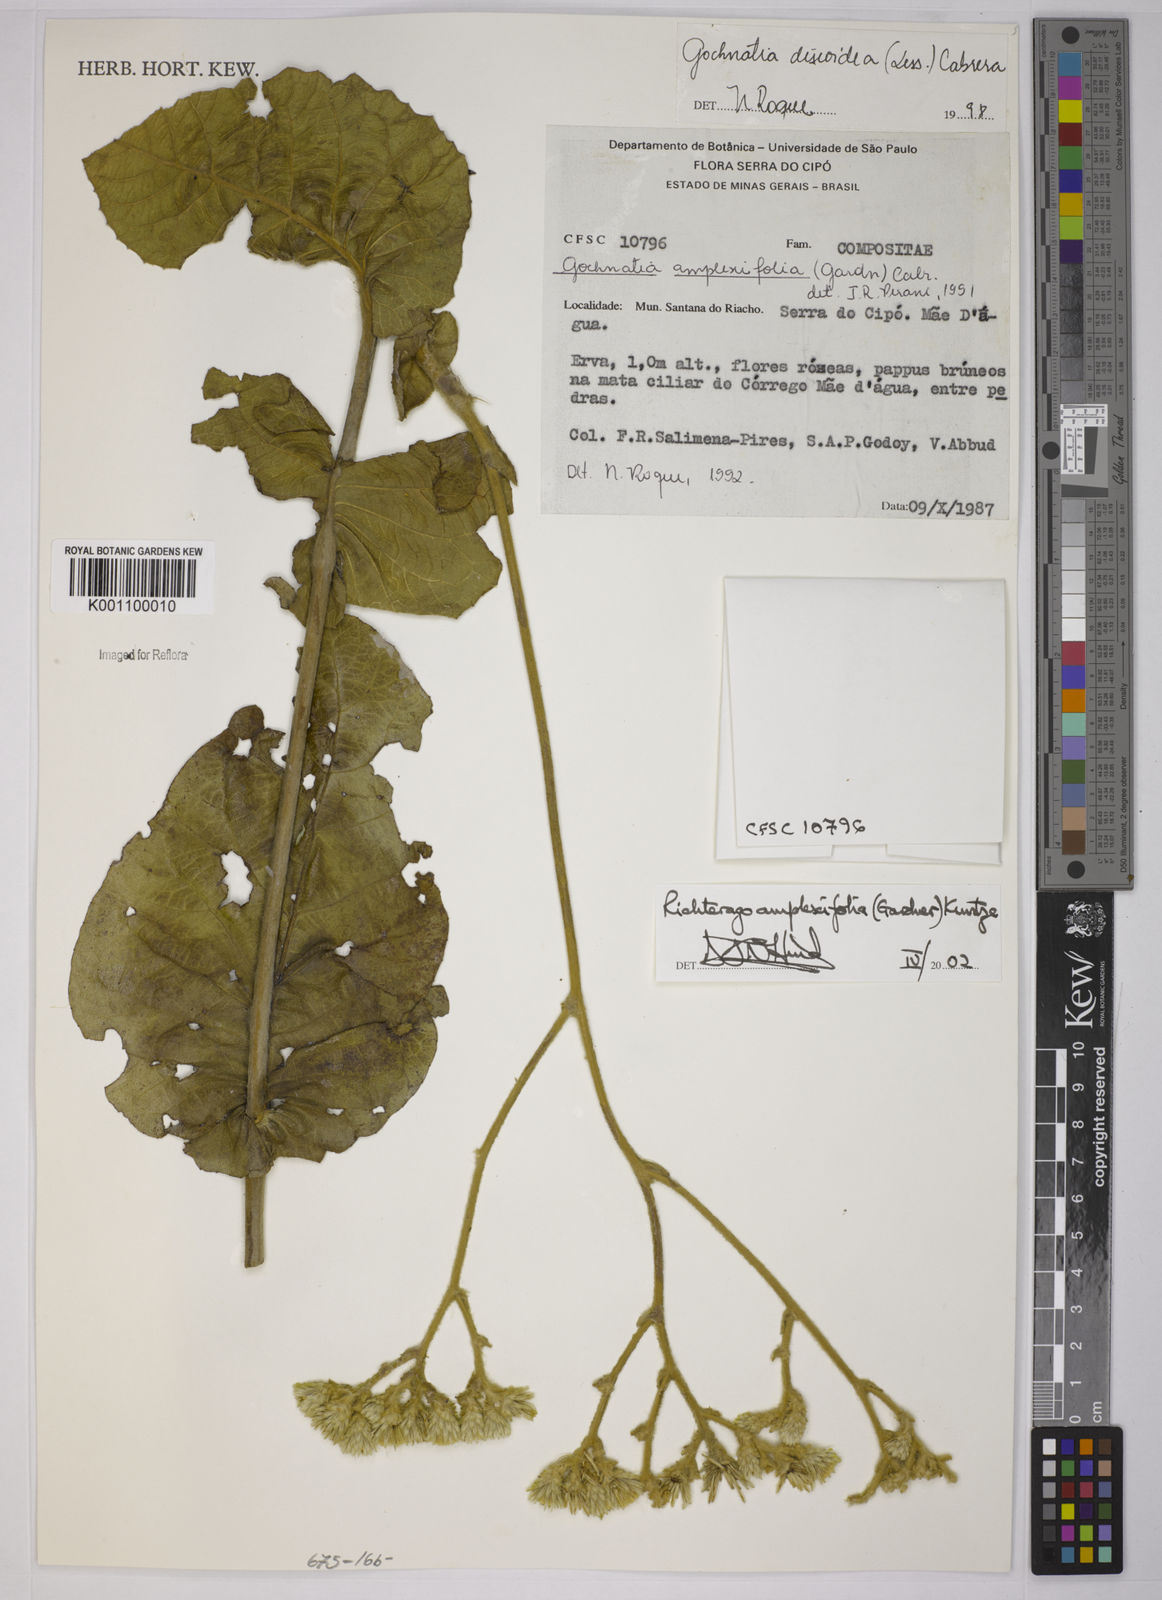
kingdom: Plantae
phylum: Tracheophyta
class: Magnoliopsida
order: Asterales
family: Asteraceae
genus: Richterago
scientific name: Richterago amplexifolia
